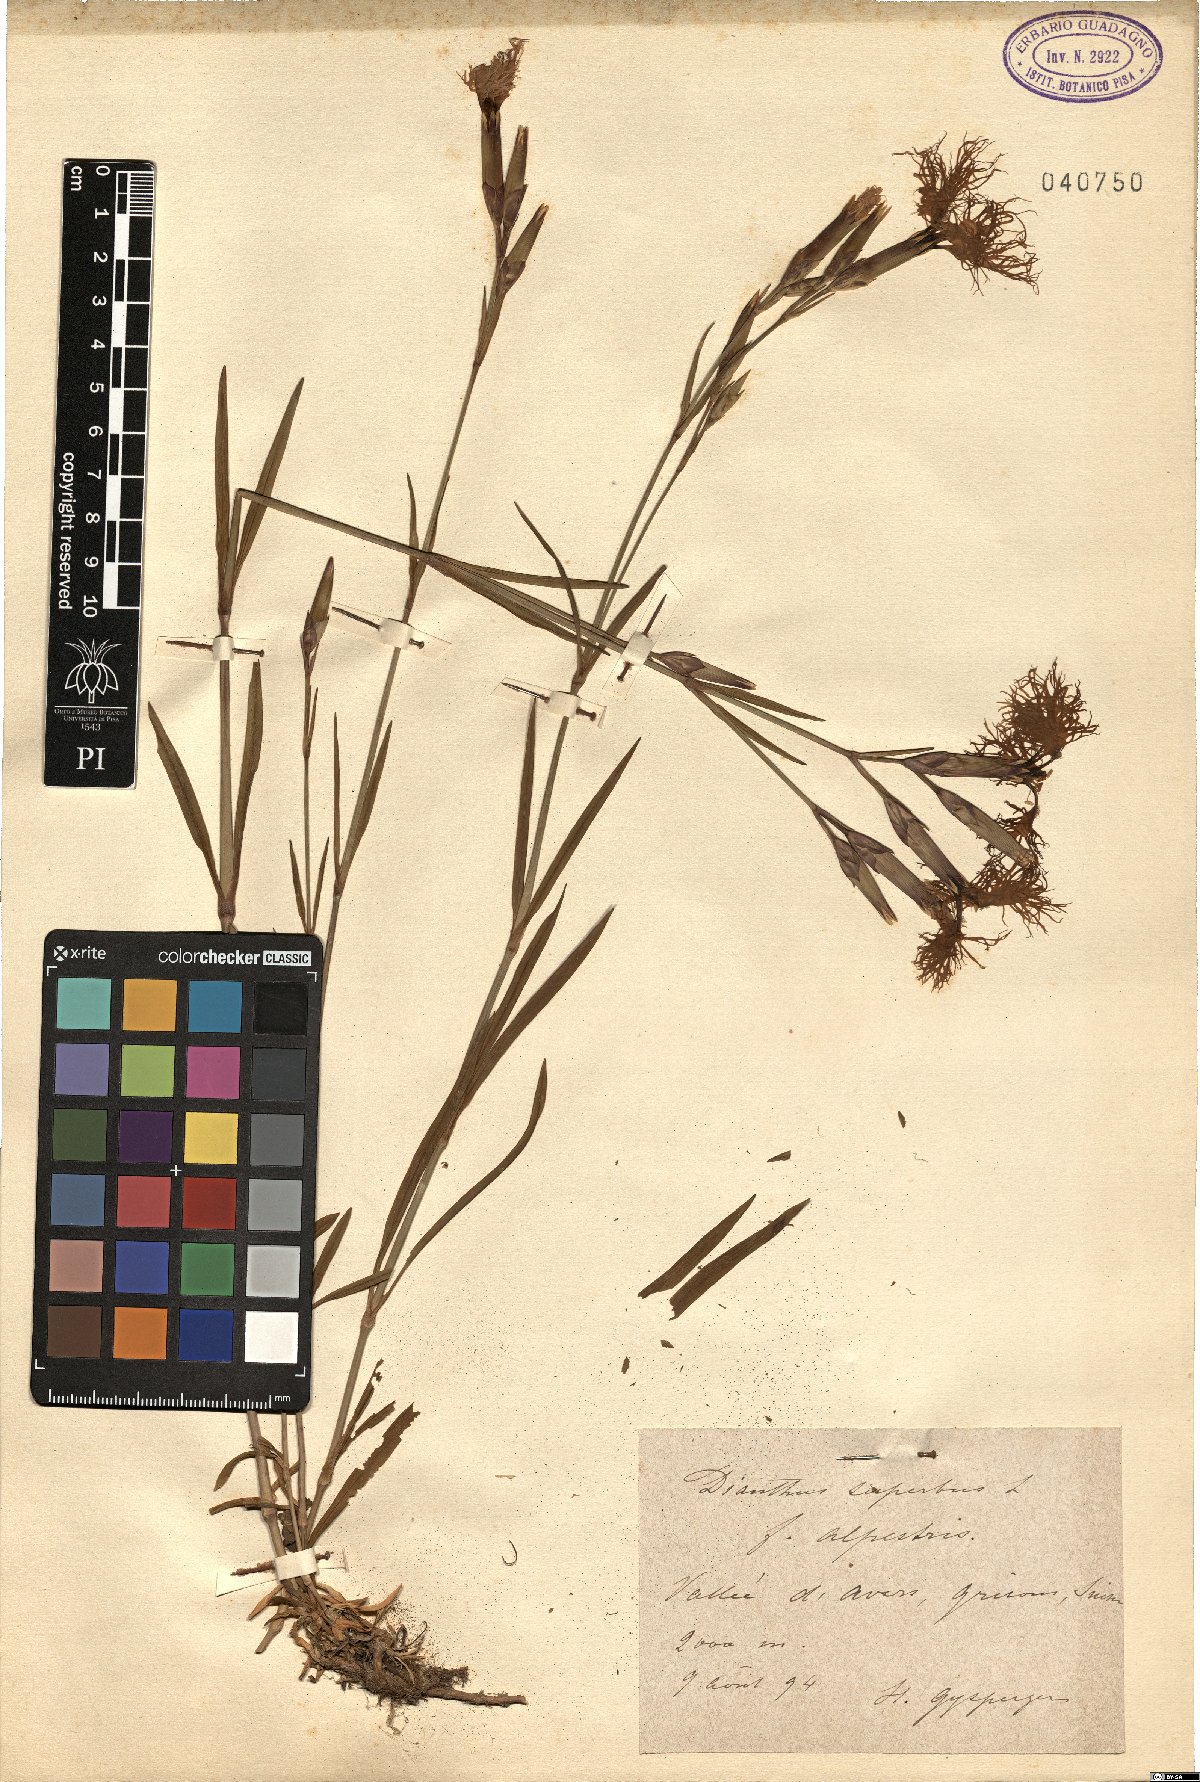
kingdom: Plantae
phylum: Tracheophyta
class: Magnoliopsida
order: Caryophyllales
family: Caryophyllaceae
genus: Dianthus
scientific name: Dianthus superbus
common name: Fringed pink
